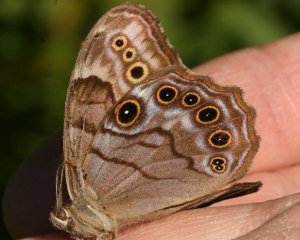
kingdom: Animalia
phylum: Arthropoda
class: Insecta
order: Lepidoptera
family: Nymphalidae
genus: Lethe
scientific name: Lethe anthedon
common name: Northern Pearly-Eye
